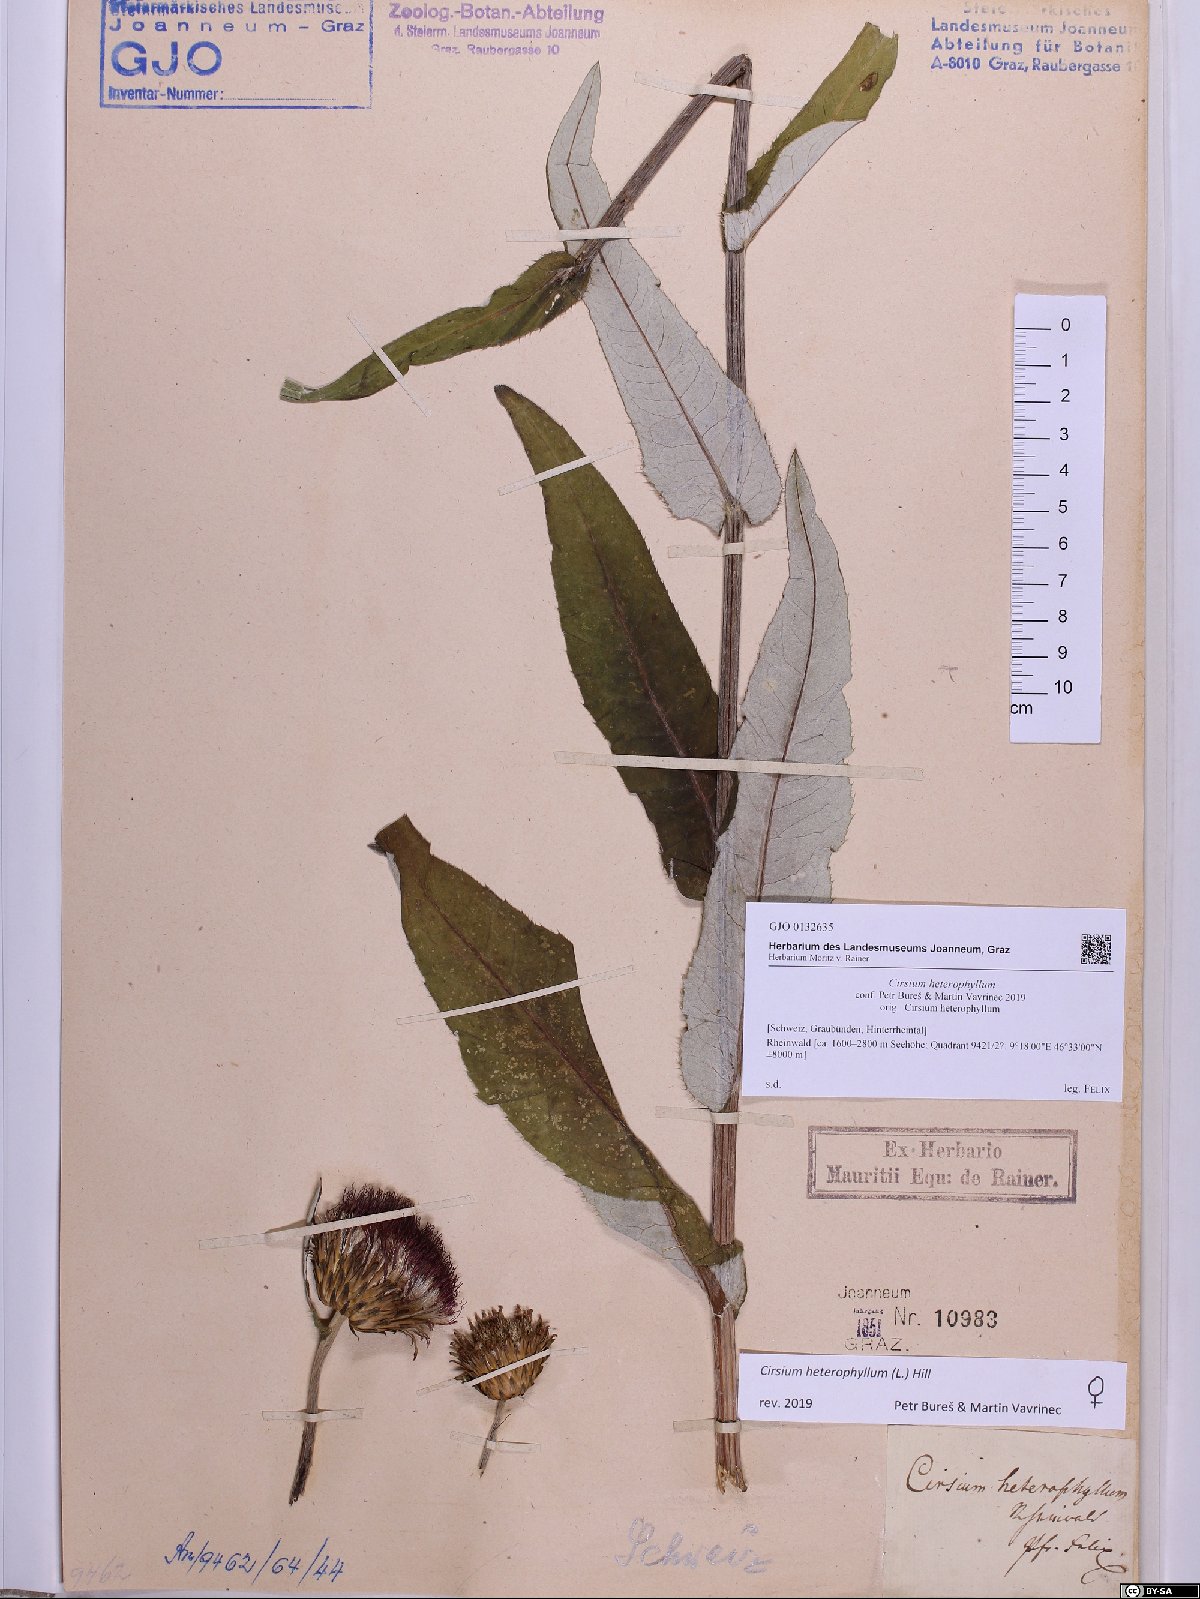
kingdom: Plantae
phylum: Tracheophyta
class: Magnoliopsida
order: Asterales
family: Asteraceae
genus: Cirsium
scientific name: Cirsium heterophyllum
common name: Melancholy thistle
